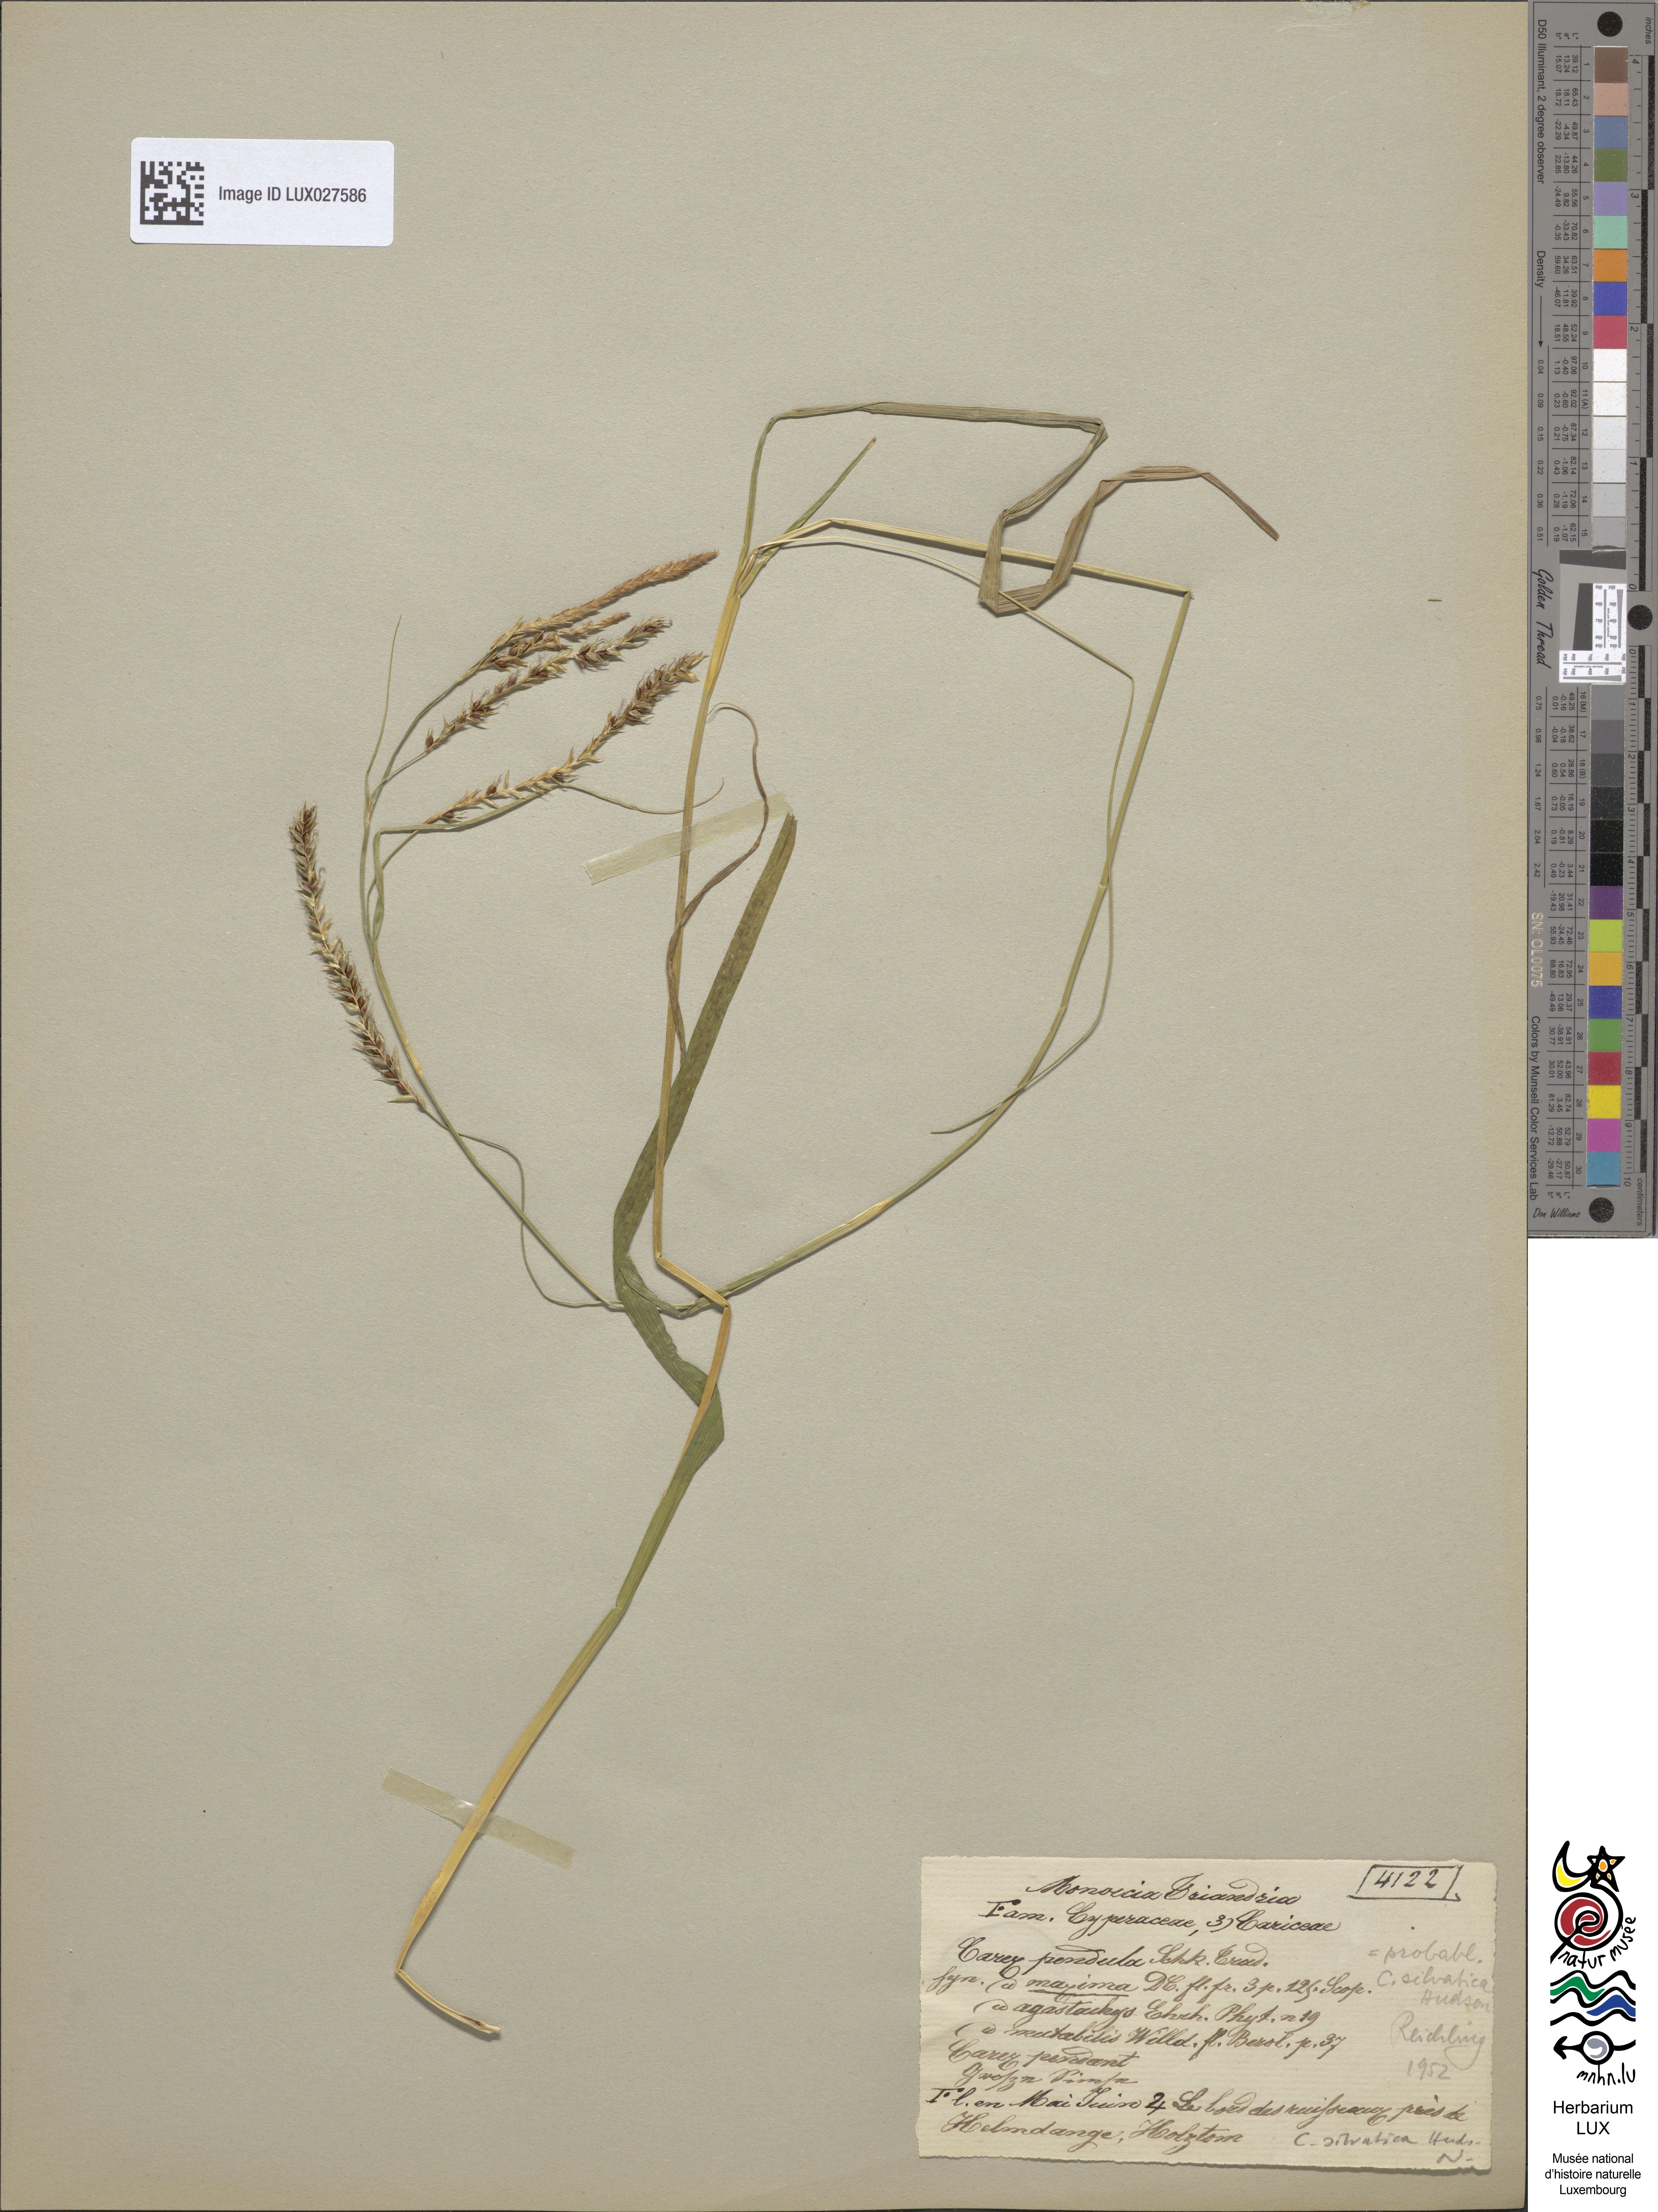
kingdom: Plantae
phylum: Tracheophyta
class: Liliopsida
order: Poales
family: Cyperaceae
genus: Carex
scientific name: Carex pendula
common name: Pendulous sedge
